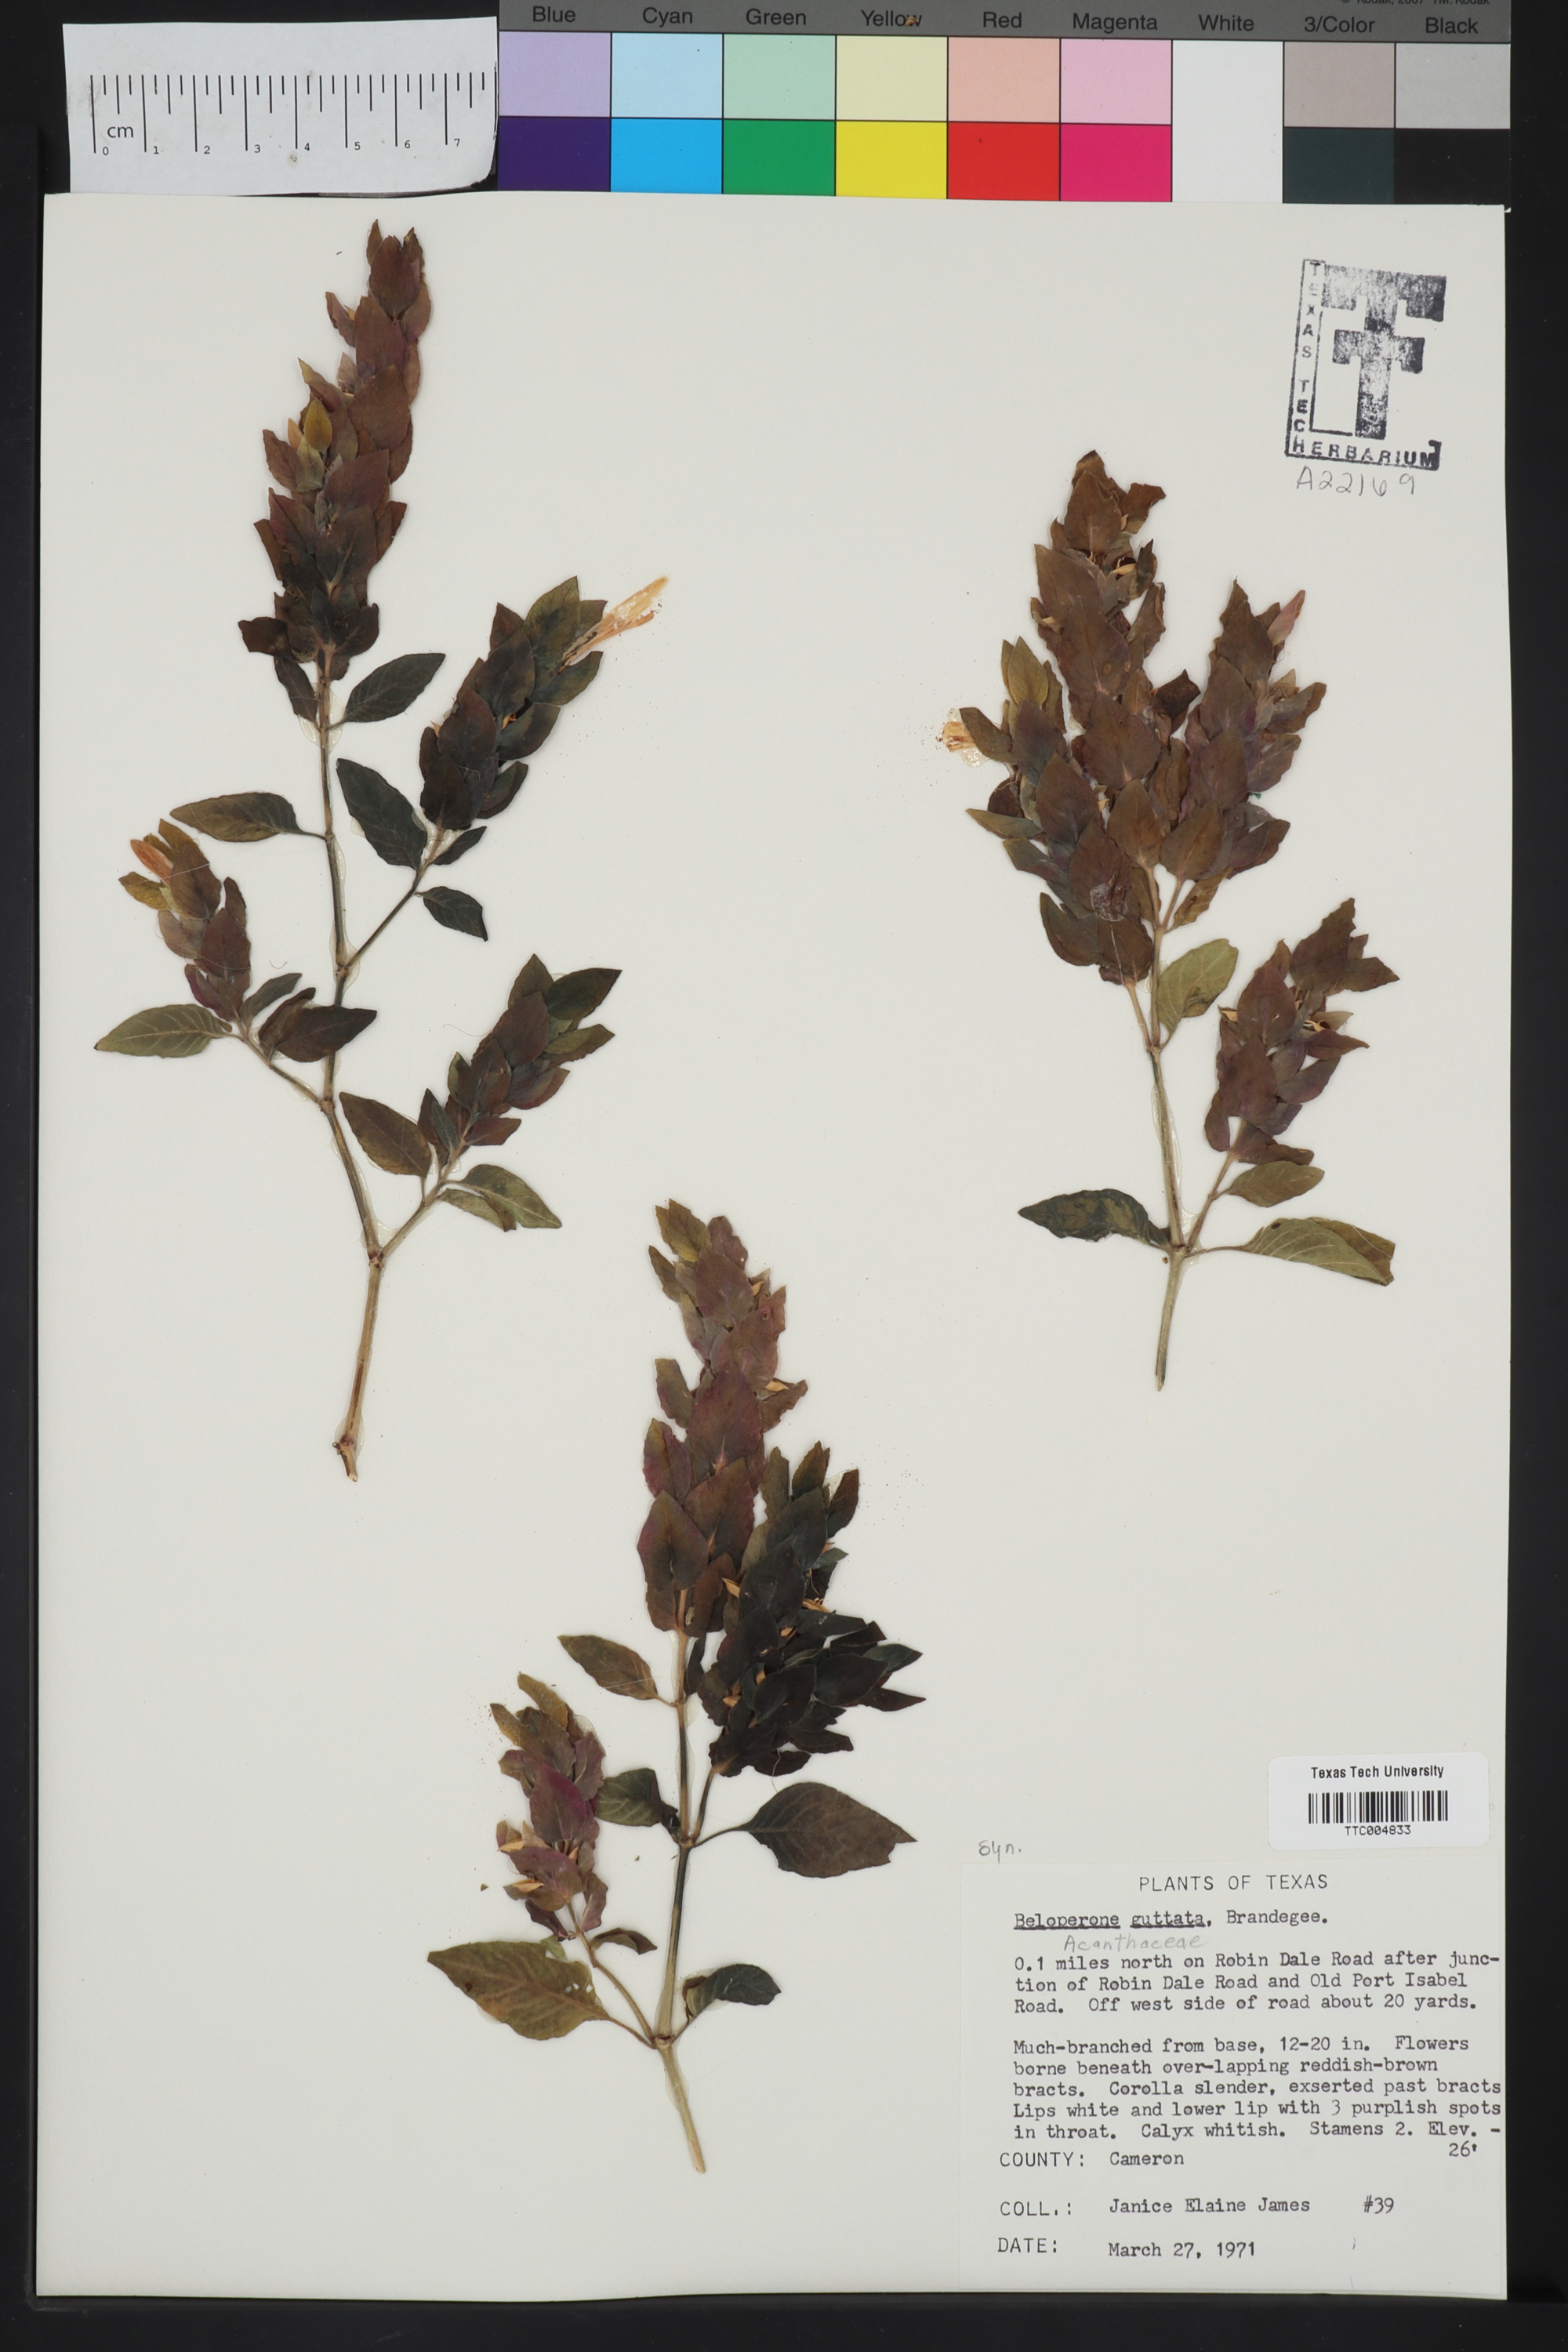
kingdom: Plantae
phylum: Tracheophyta
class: Magnoliopsida
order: Lamiales
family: Acanthaceae
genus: Justicia
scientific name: Justicia brandegeeana
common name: Shrimpplant
